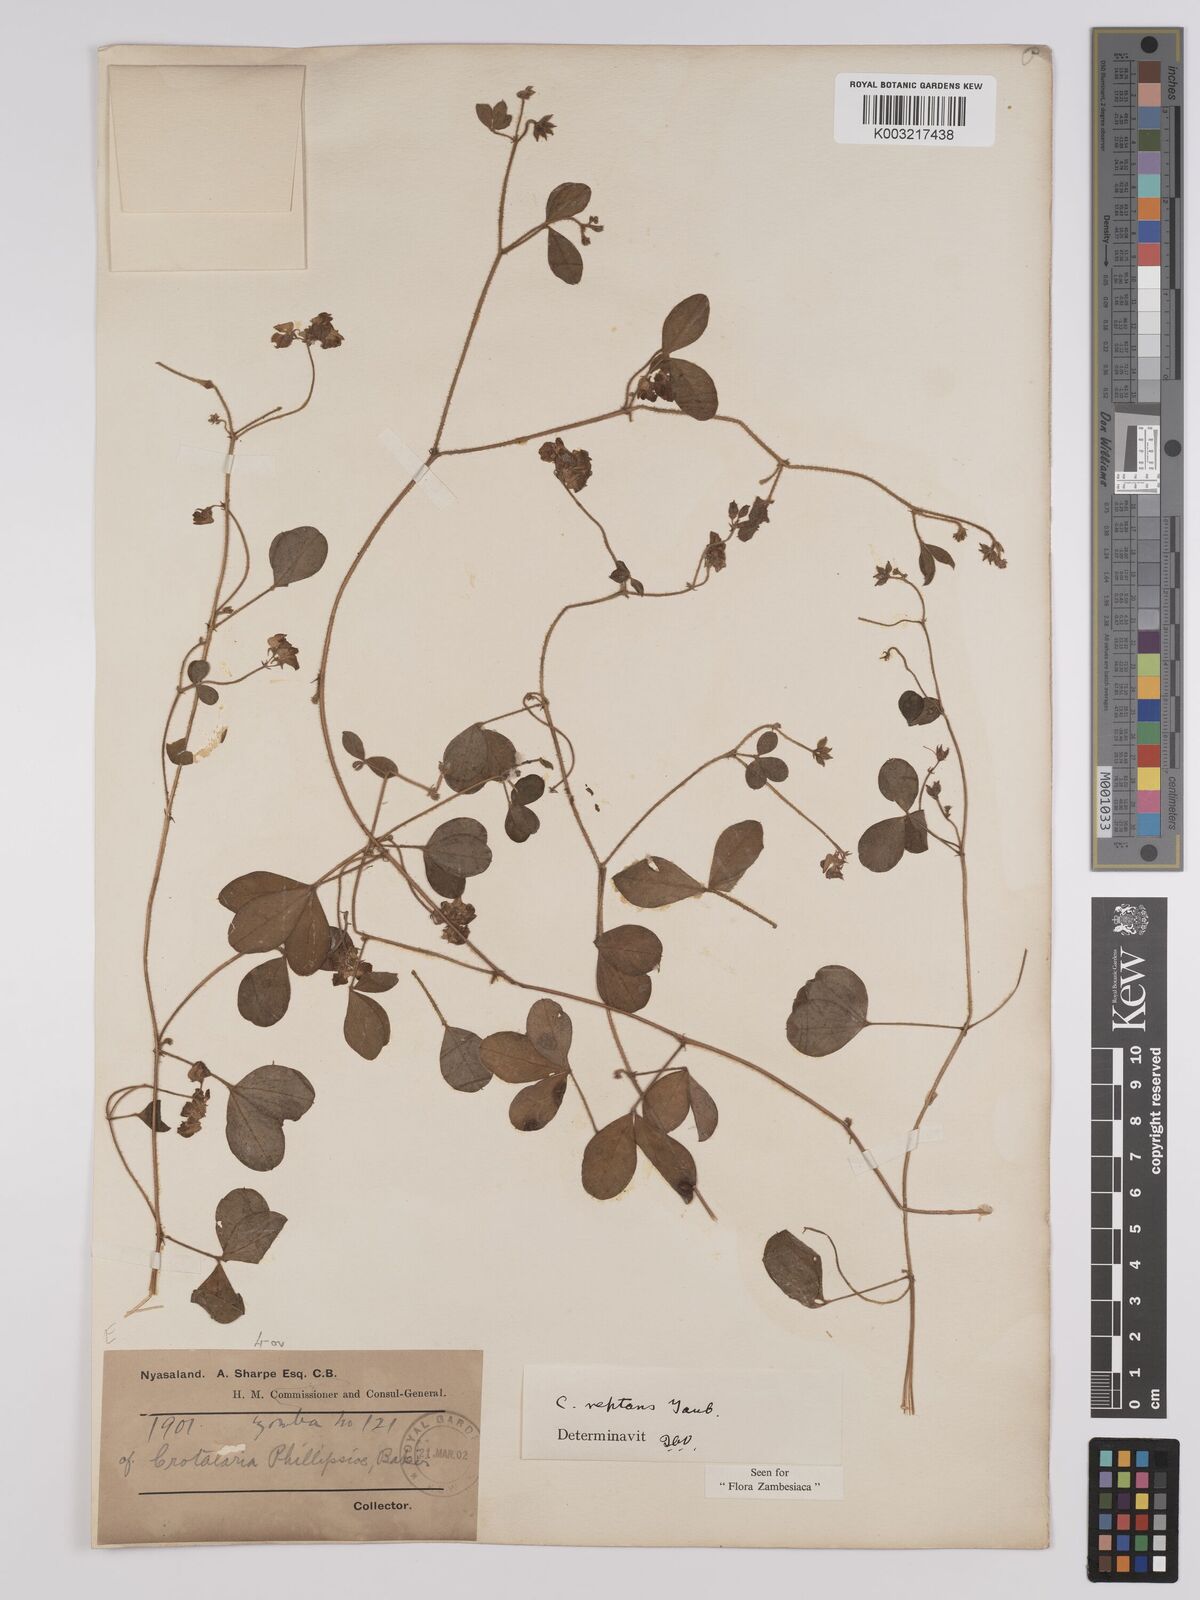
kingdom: Plantae
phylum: Tracheophyta
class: Magnoliopsida
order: Fabales
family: Fabaceae
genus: Crotalaria
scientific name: Crotalaria reptans
